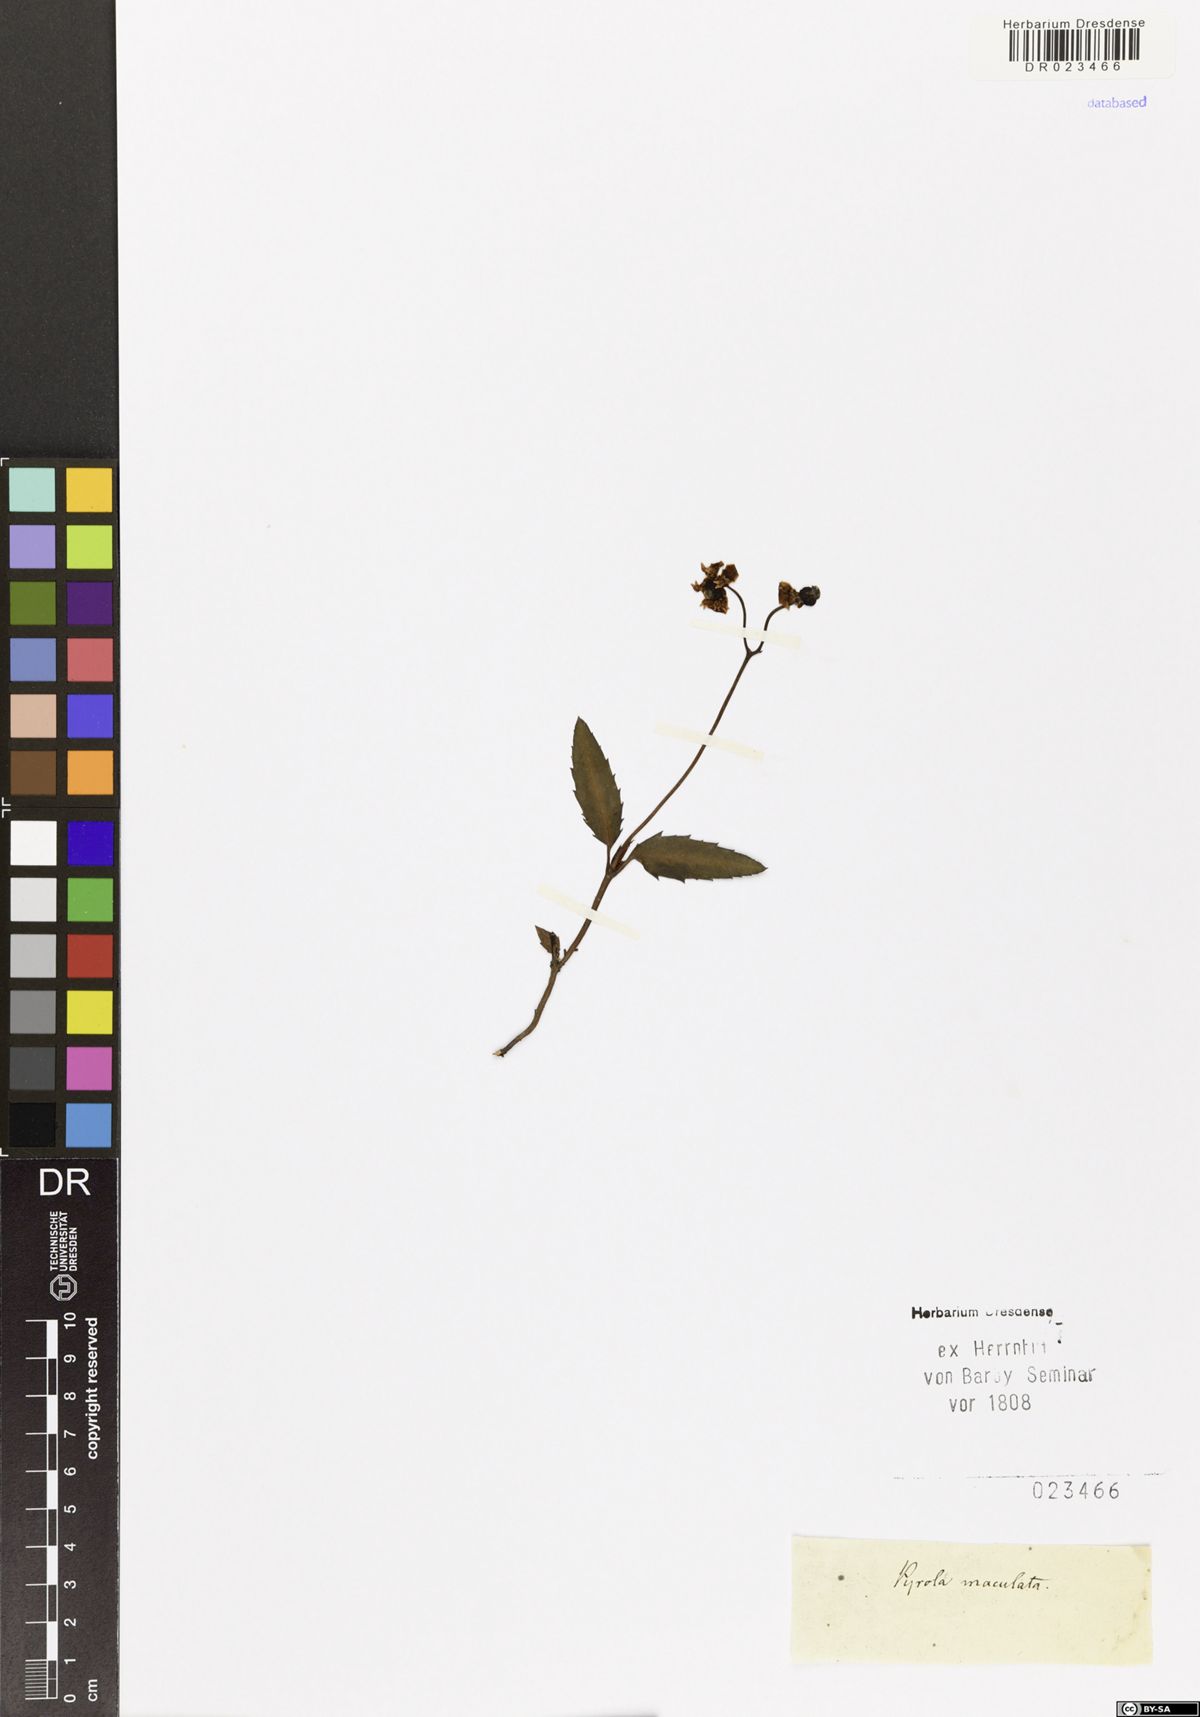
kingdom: Plantae
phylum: Tracheophyta
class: Magnoliopsida
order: Ericales
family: Ericaceae
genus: Chimaphila
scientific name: Chimaphila maculata
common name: Spotted pipsissewa
